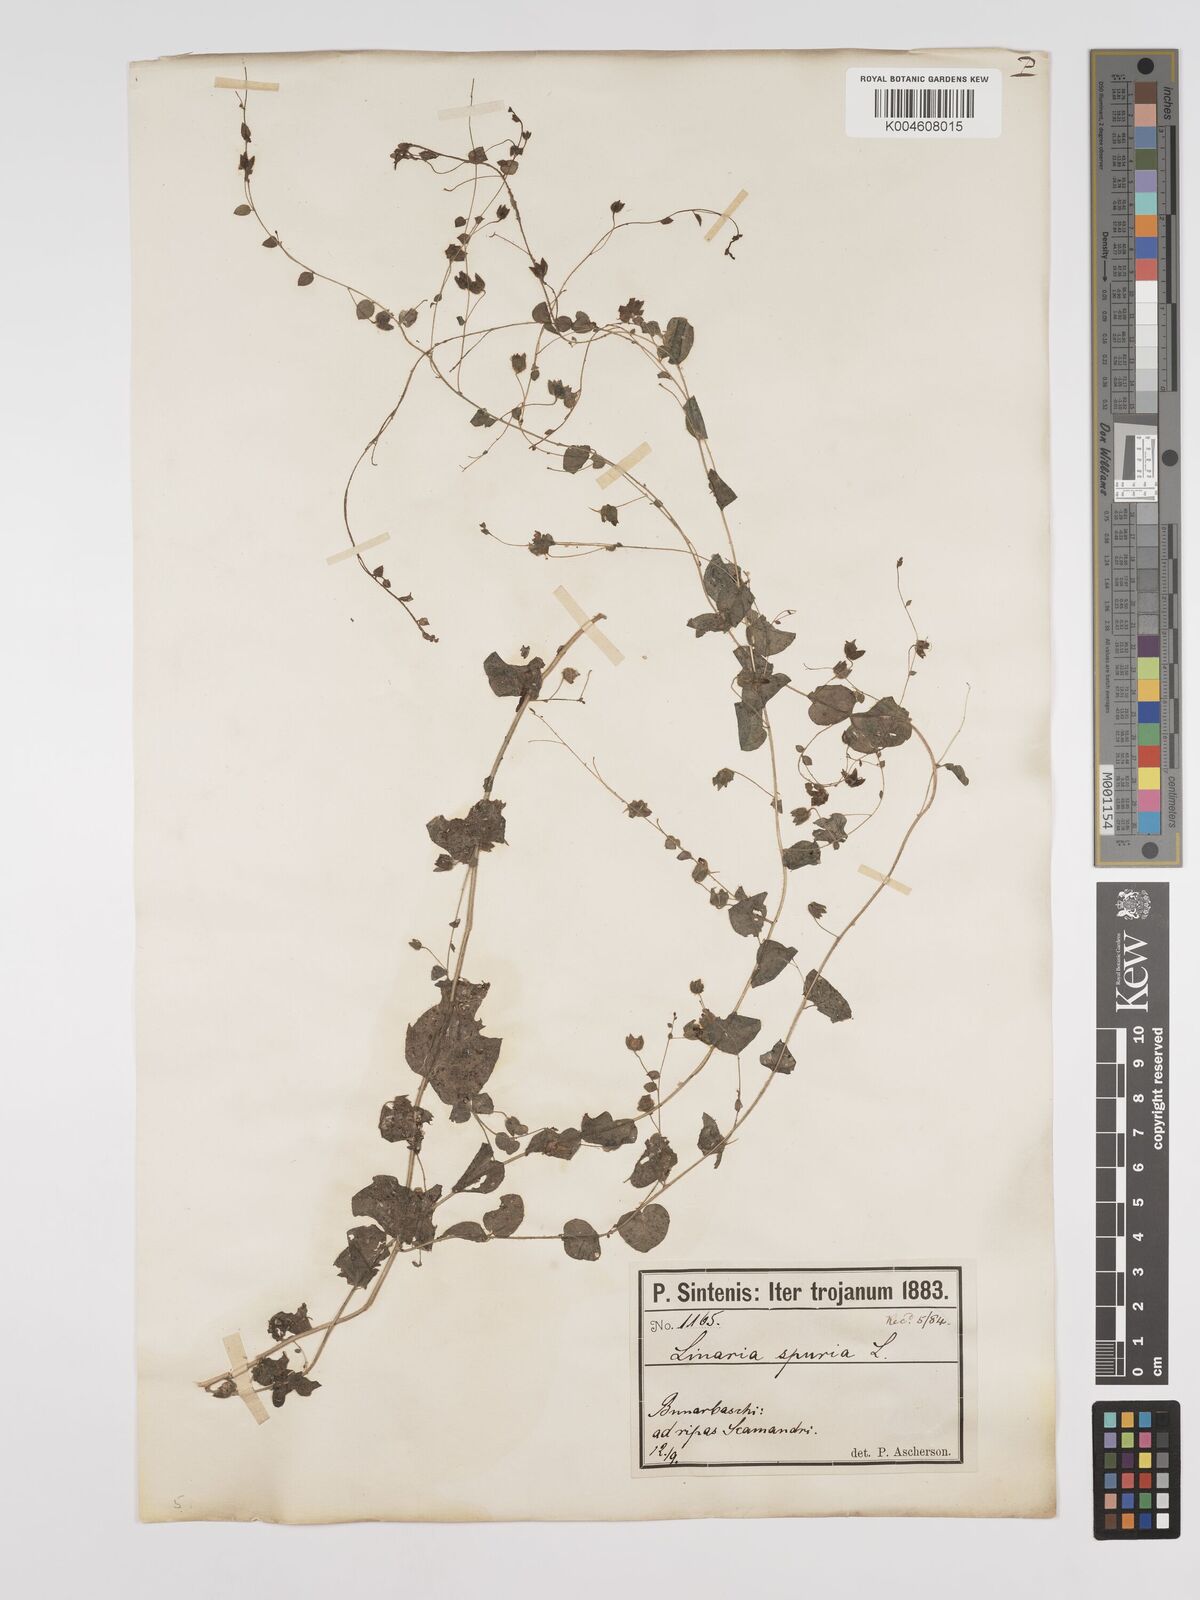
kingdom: Plantae
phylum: Tracheophyta
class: Magnoliopsida
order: Lamiales
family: Plantaginaceae
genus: Kickxia
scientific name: Kickxia spuria
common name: Round-leaved fluellen
